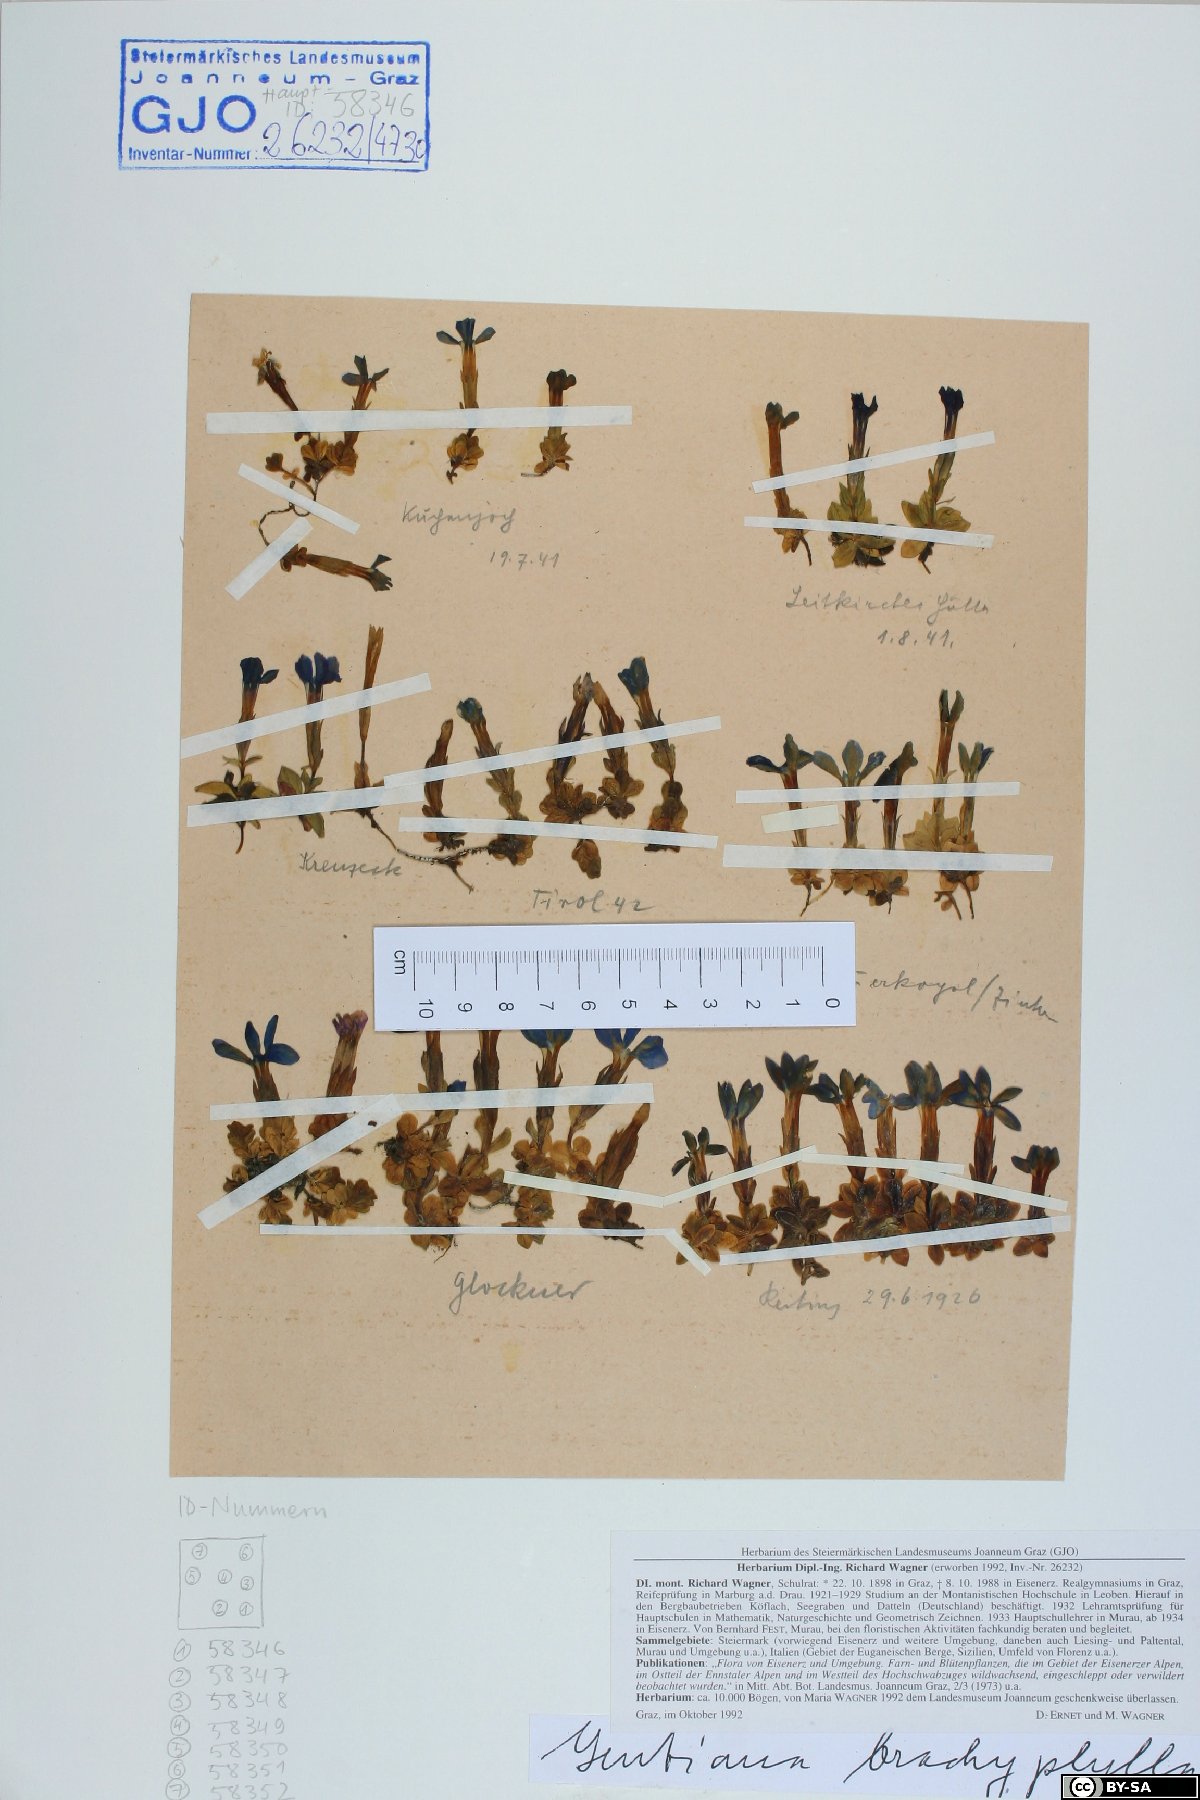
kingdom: Plantae
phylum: Tracheophyta
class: Magnoliopsida
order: Gentianales
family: Gentianaceae
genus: Gentiana
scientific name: Gentiana brachyphylla
